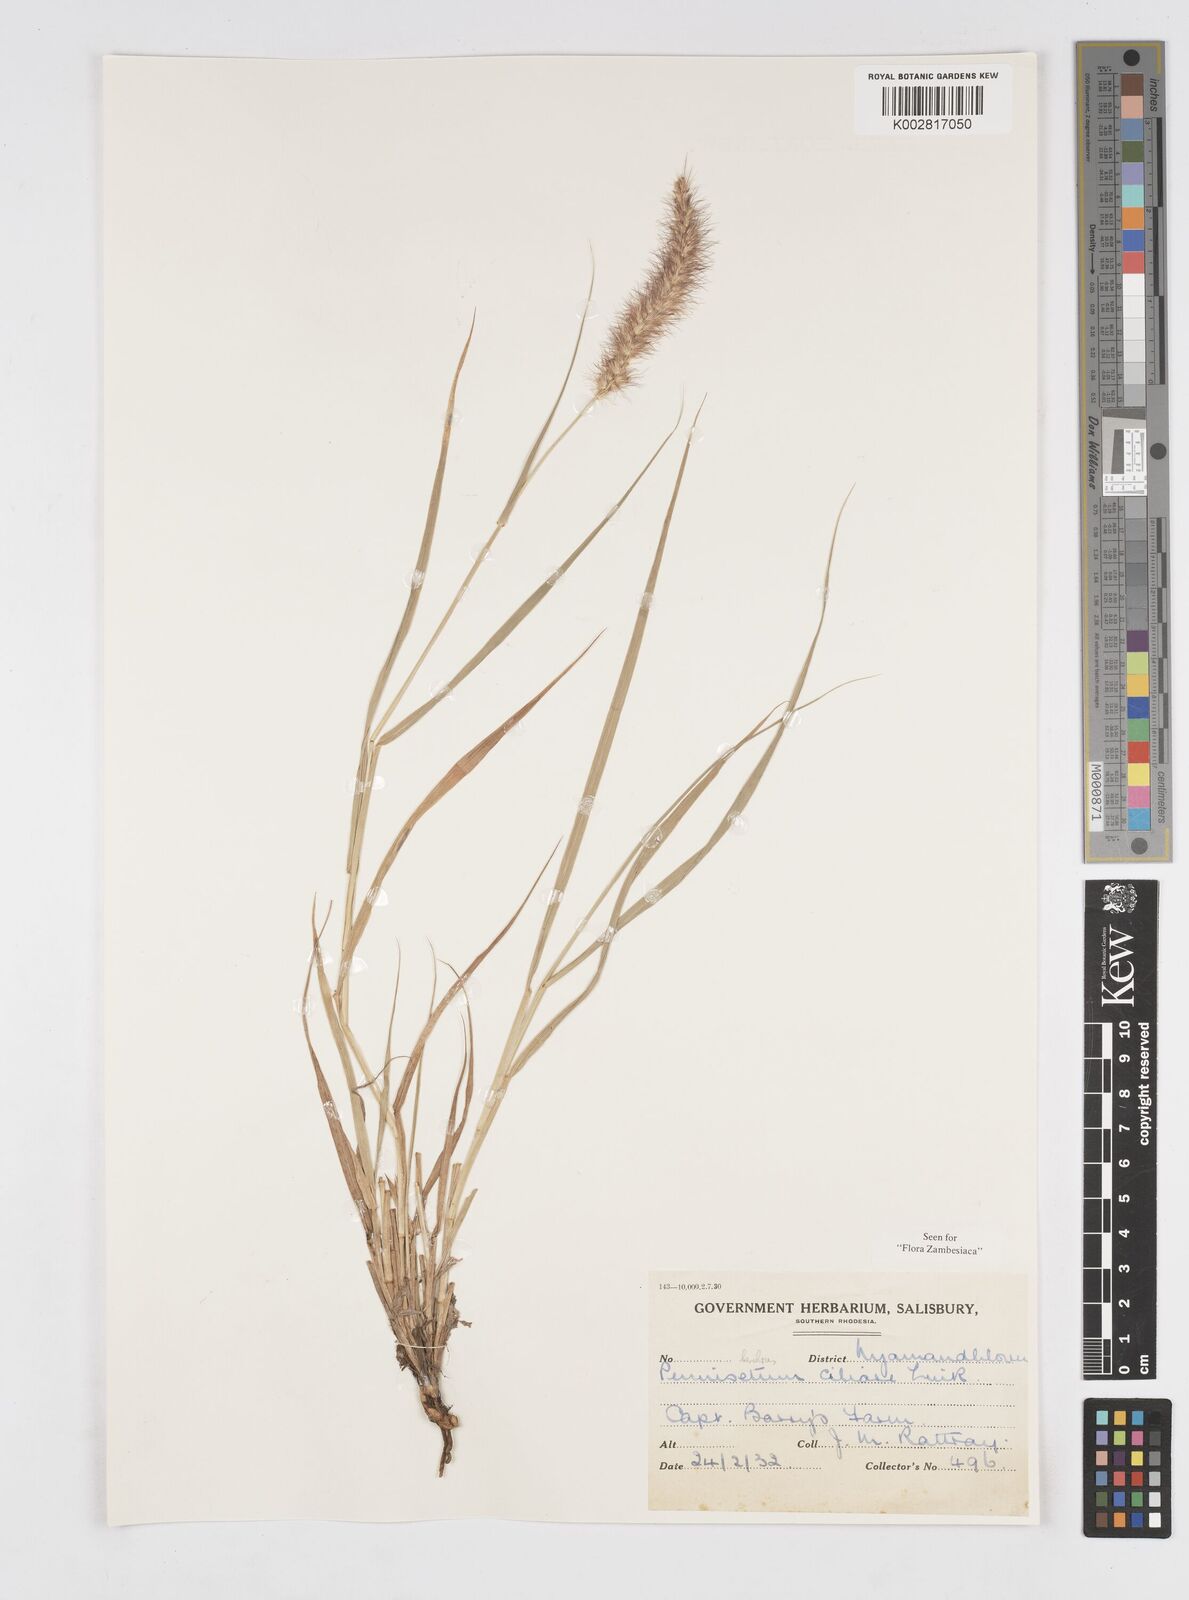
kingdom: Plantae
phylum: Tracheophyta
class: Liliopsida
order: Poales
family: Poaceae
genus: Cenchrus
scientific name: Cenchrus ciliaris
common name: Buffelgrass
